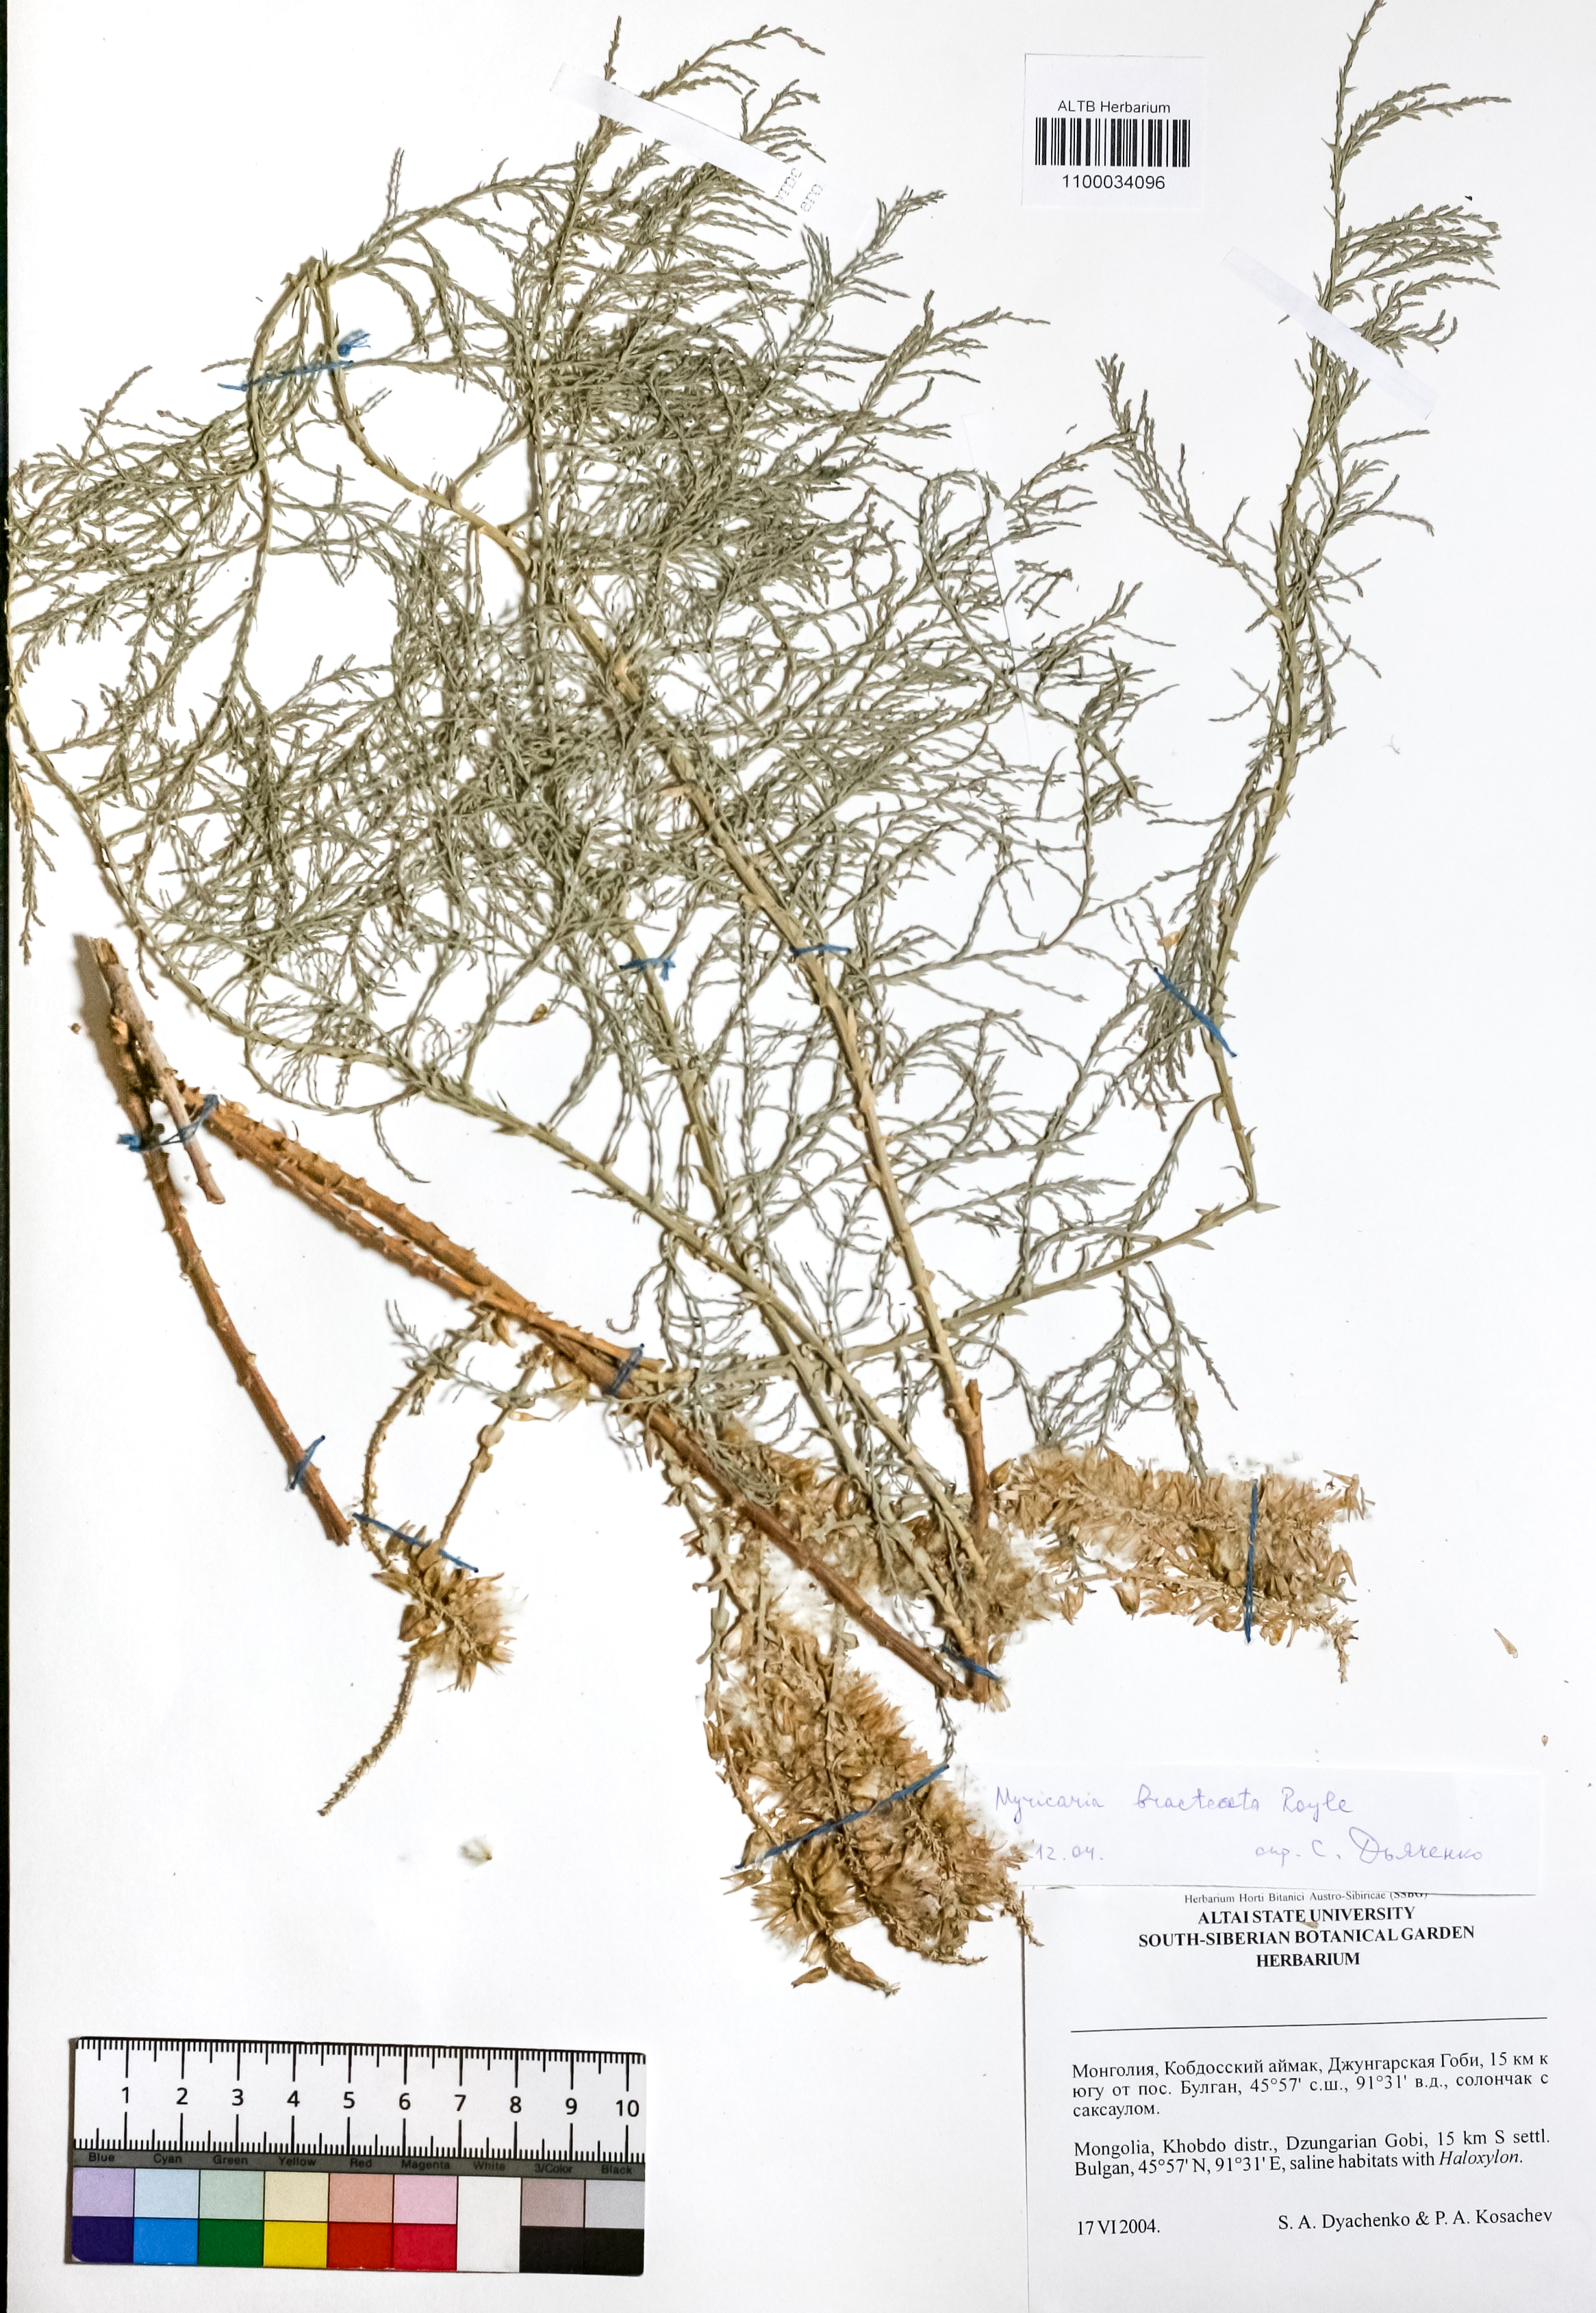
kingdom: Plantae
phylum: Tracheophyta
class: Magnoliopsida
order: Caryophyllales
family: Tamaricaceae
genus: Myricaria
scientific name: Myricaria bracteata
